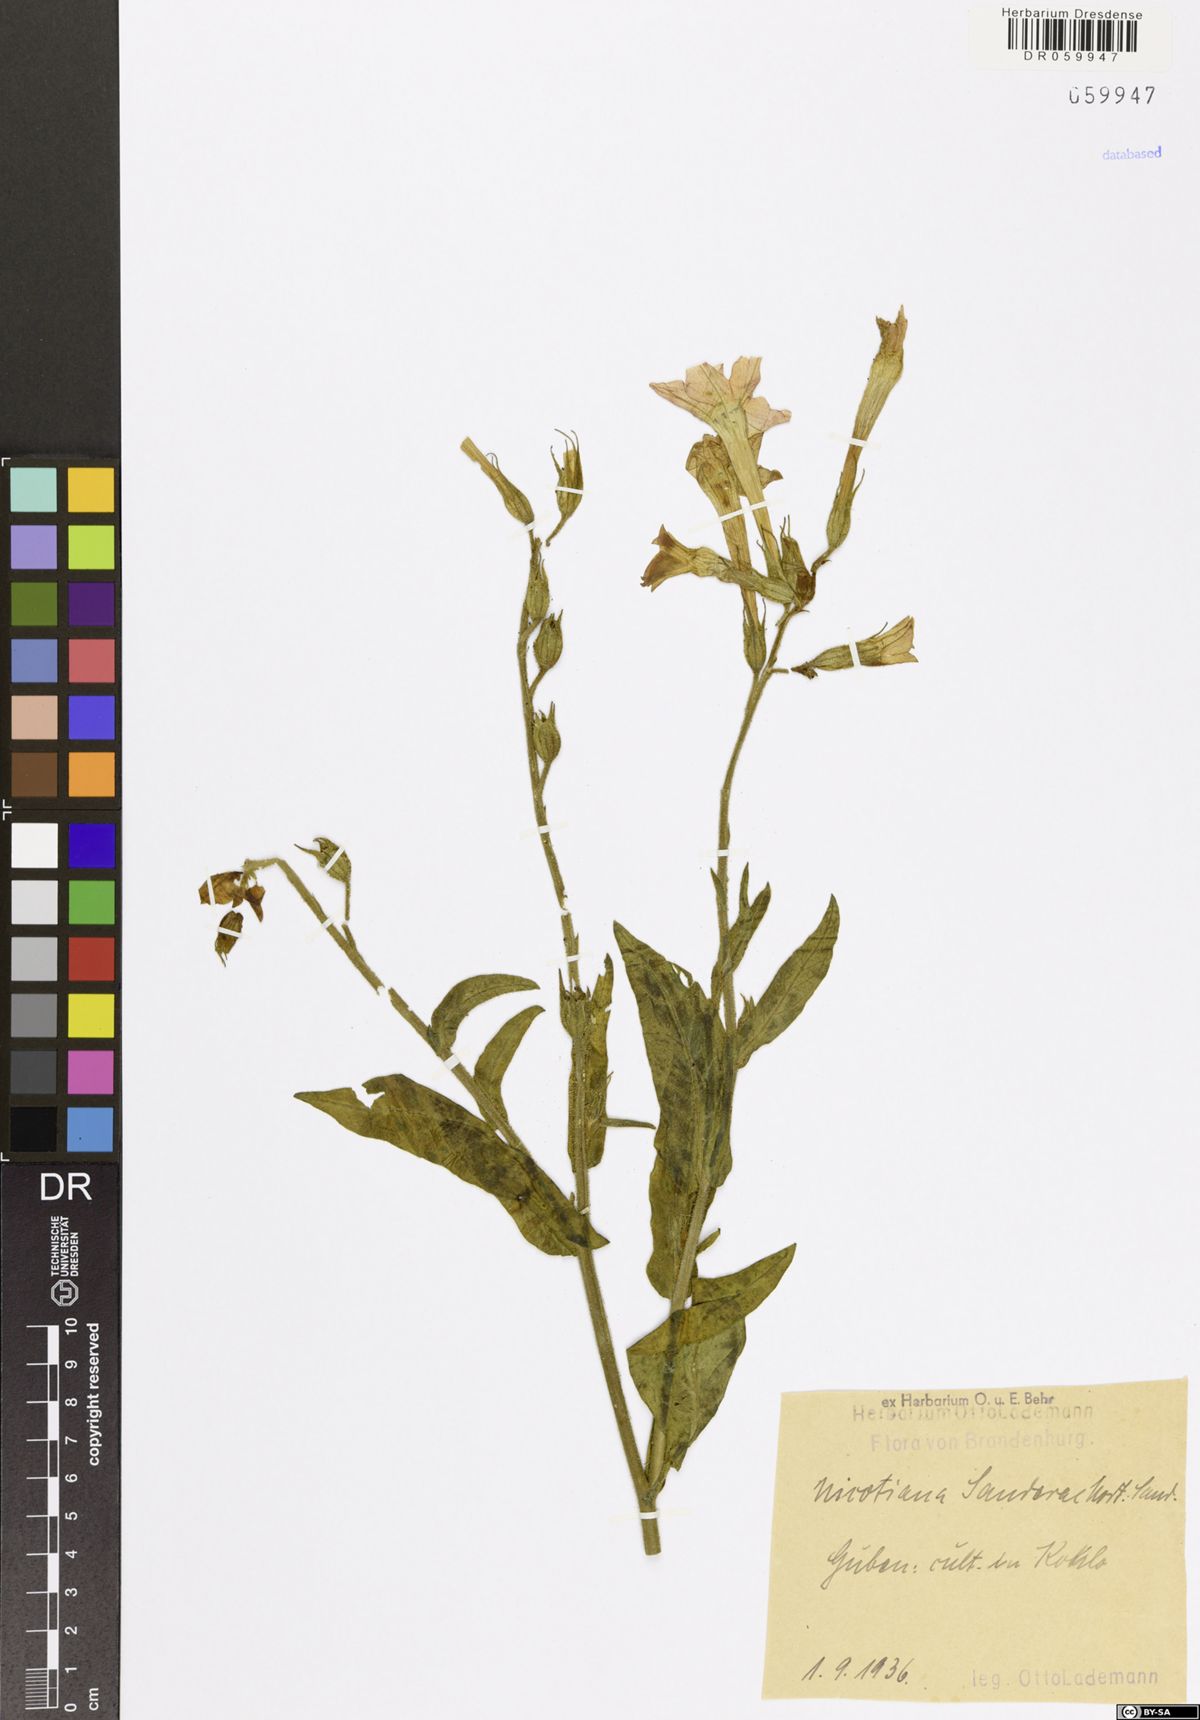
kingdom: Plantae
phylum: Tracheophyta
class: Magnoliopsida
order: Solanales
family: Solanaceae
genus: Nicotiana
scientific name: Nicotiana sanderae
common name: Tobacco
